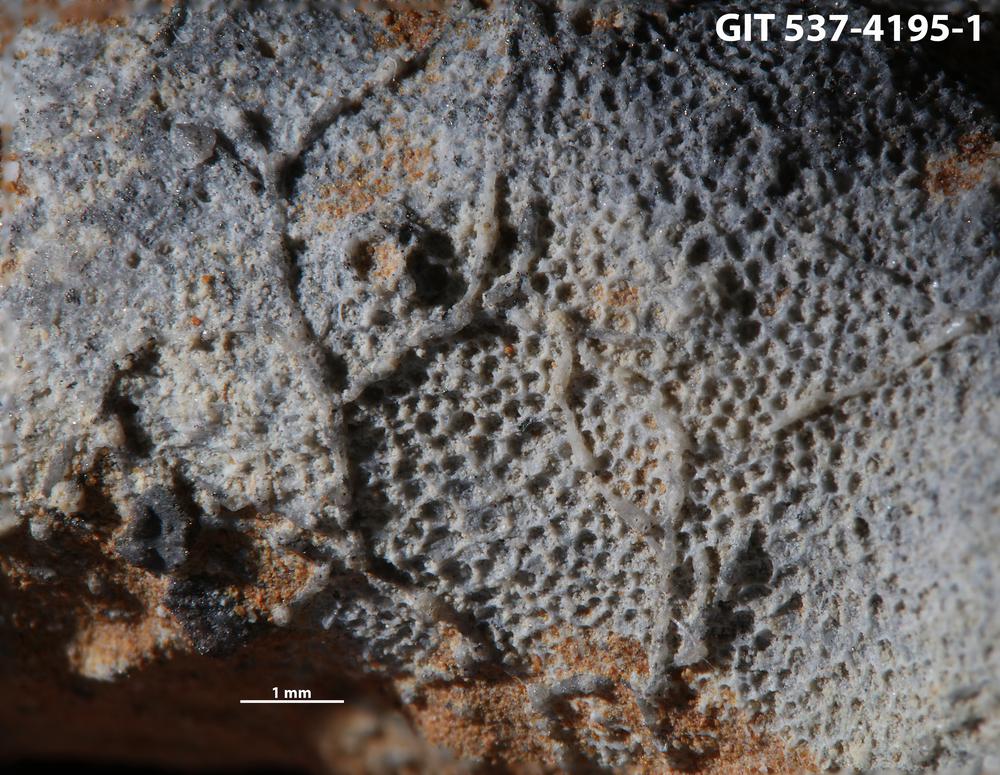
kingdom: Animalia
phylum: Bryozoa
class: Stenolaemata
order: Cyclostomatida
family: Corynotrypidae
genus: Corynotrypa
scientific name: Corynotrypa delicatula
